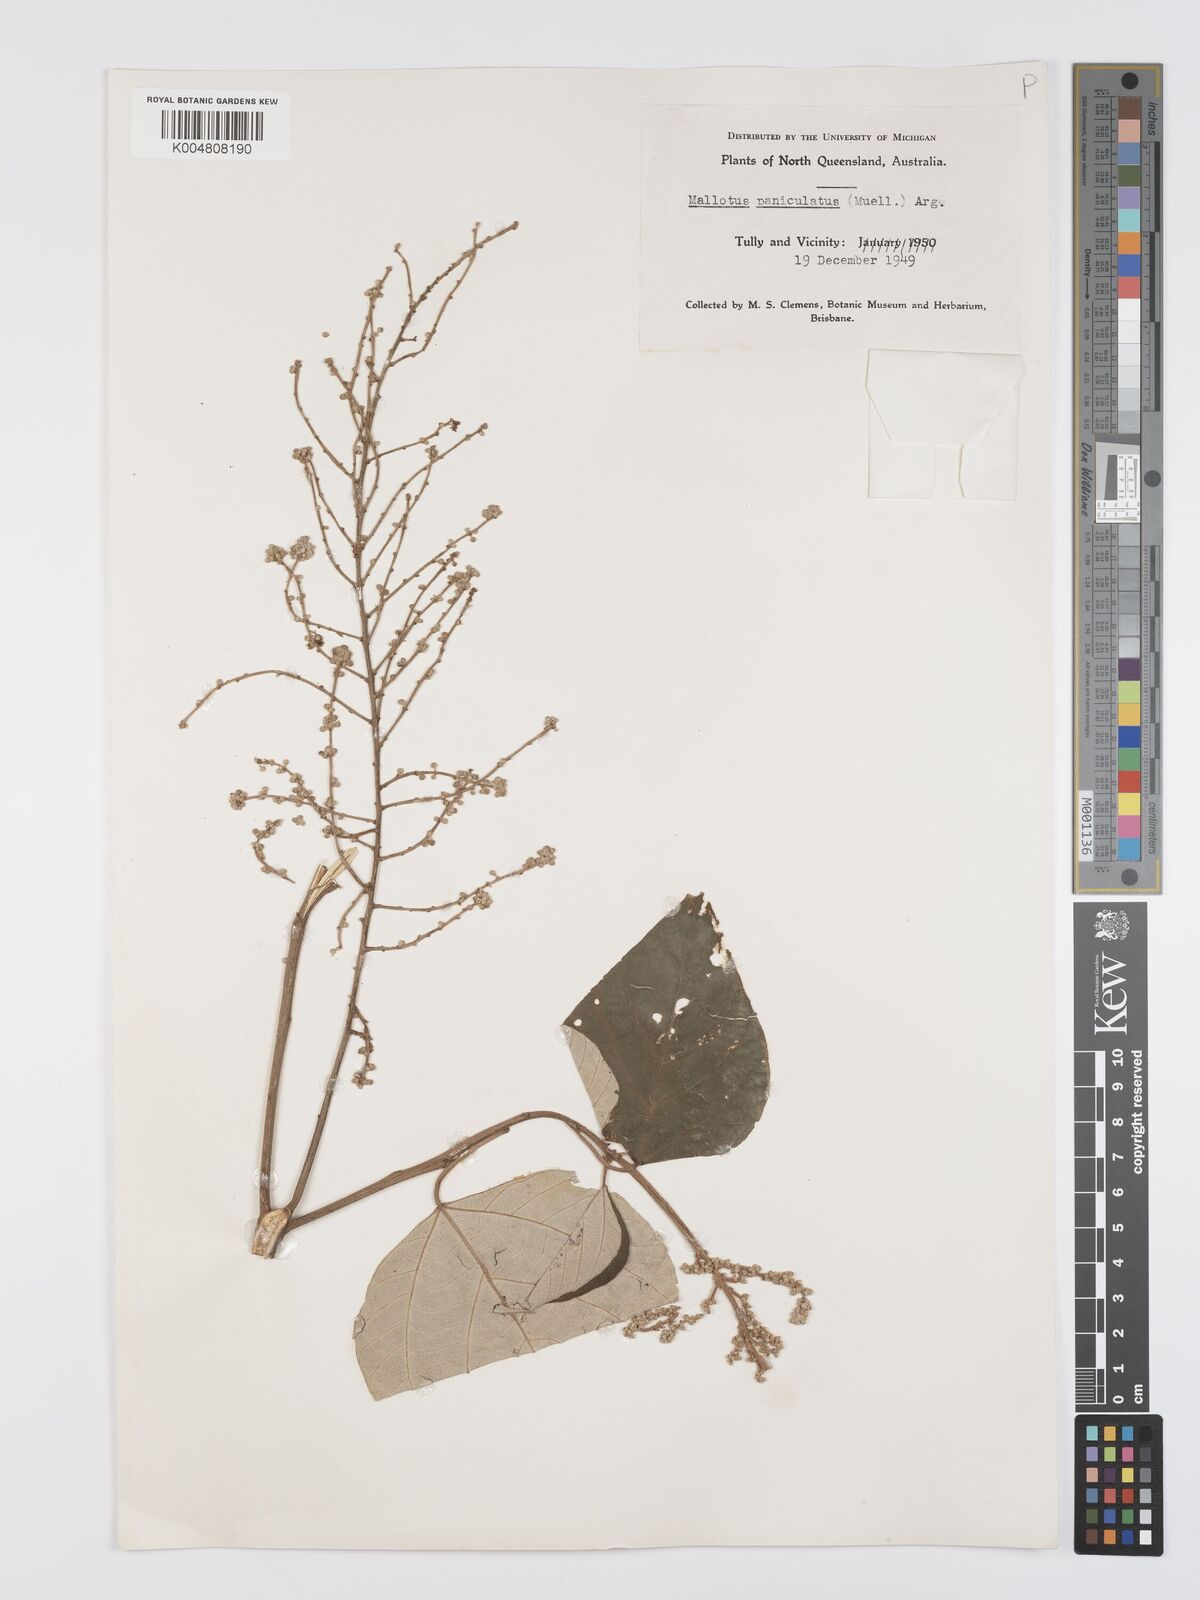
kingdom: Plantae
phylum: Tracheophyta
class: Magnoliopsida
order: Malpighiales
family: Euphorbiaceae
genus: Mallotus
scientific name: Mallotus paniculatus
